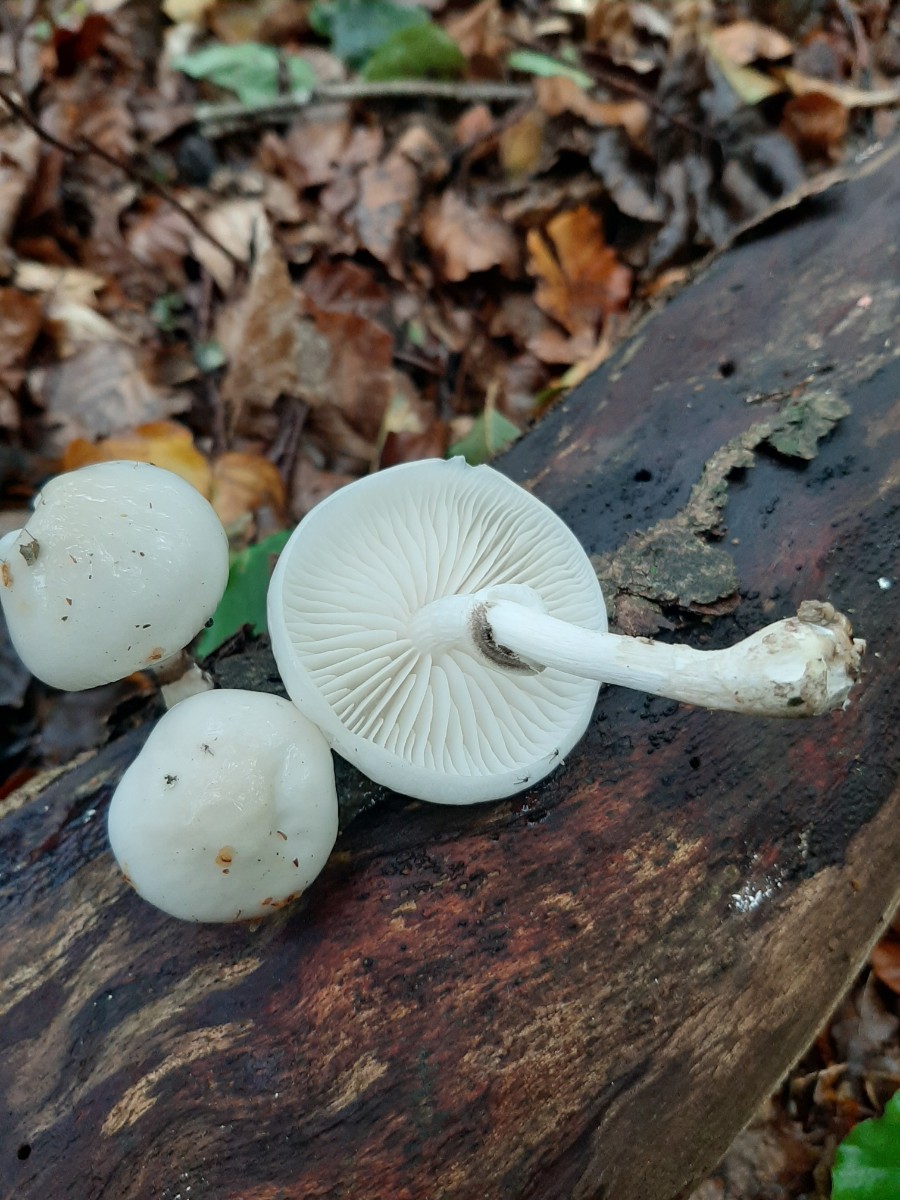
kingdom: Fungi
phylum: Basidiomycota
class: Agaricomycetes
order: Agaricales
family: Physalacriaceae
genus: Mucidula
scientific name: Mucidula mucida
